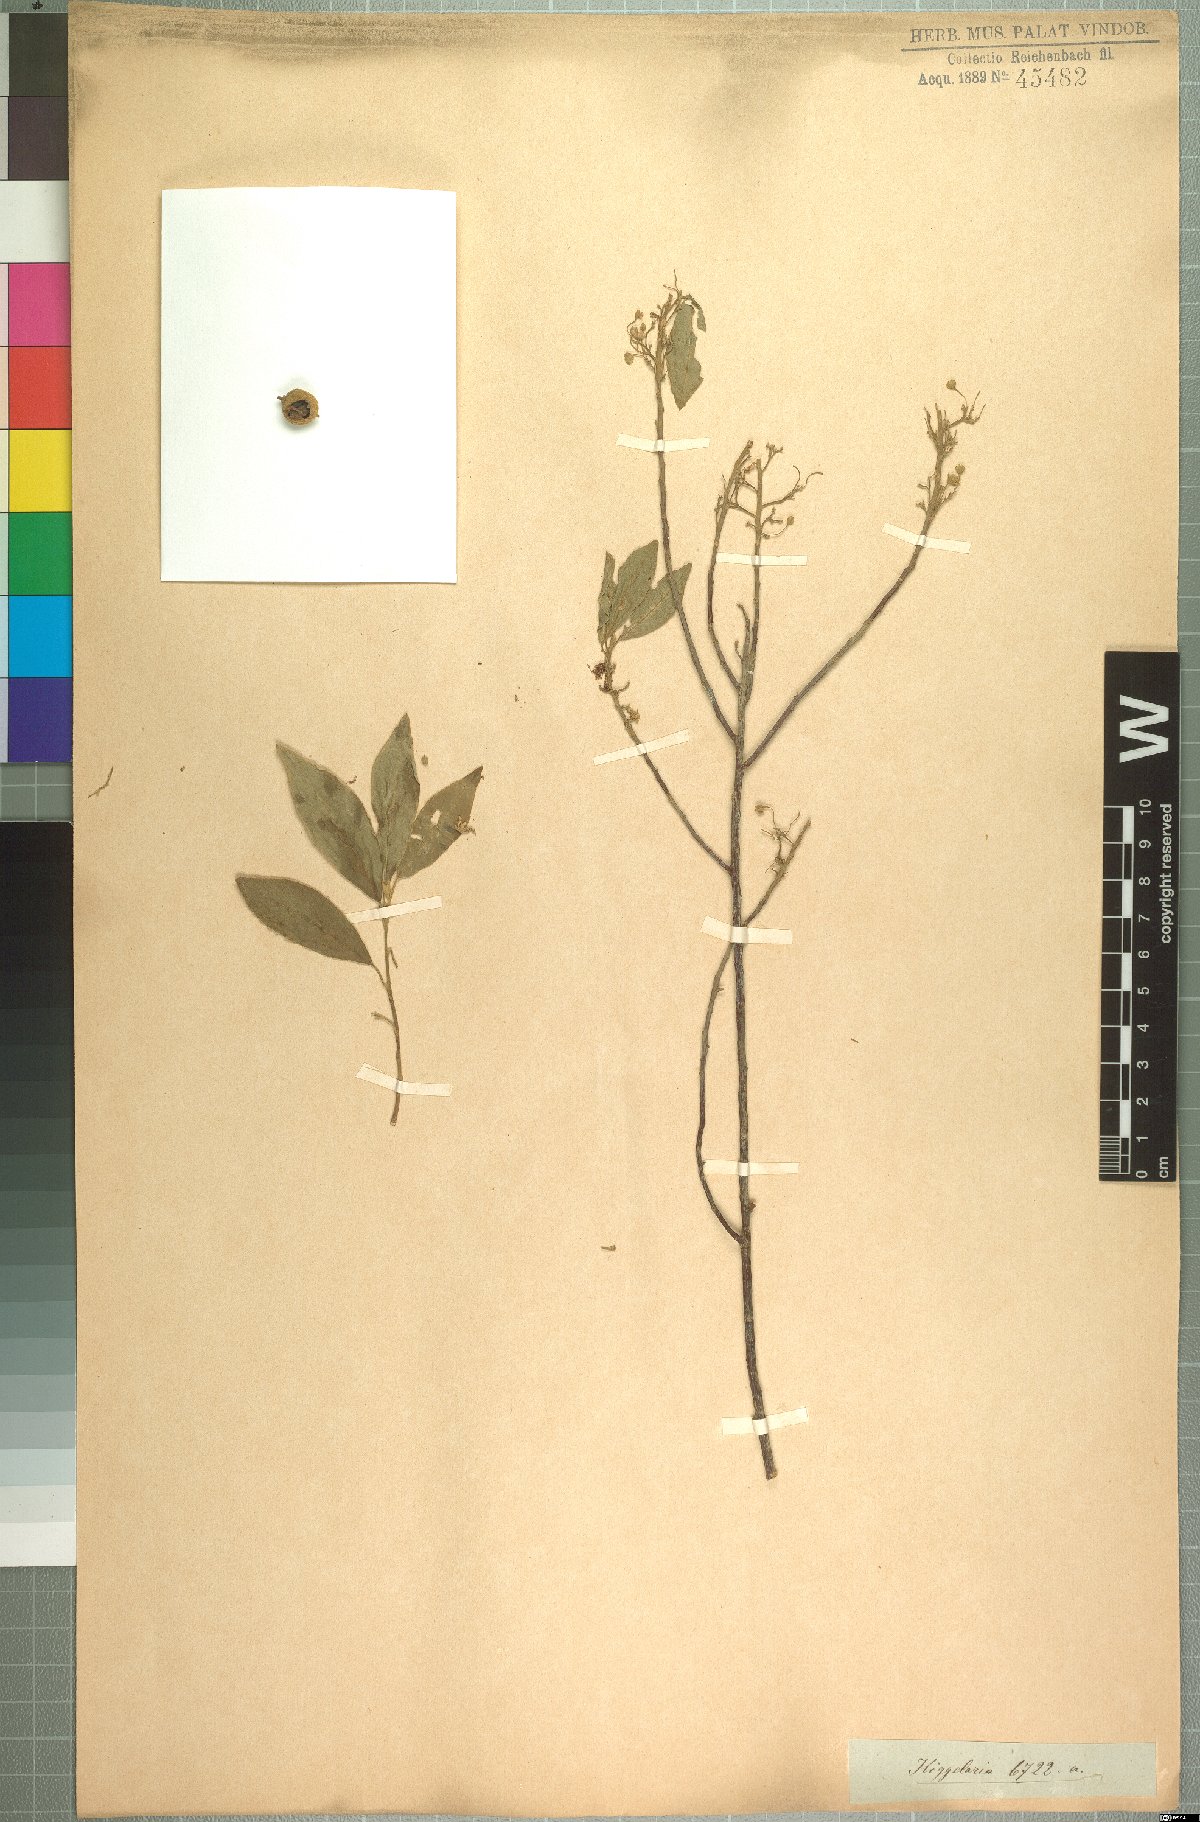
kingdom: Plantae
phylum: Tracheophyta
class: Magnoliopsida
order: Malpighiales
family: Achariaceae
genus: Kiggelaria
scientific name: Kiggelaria africana
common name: Wild peach
